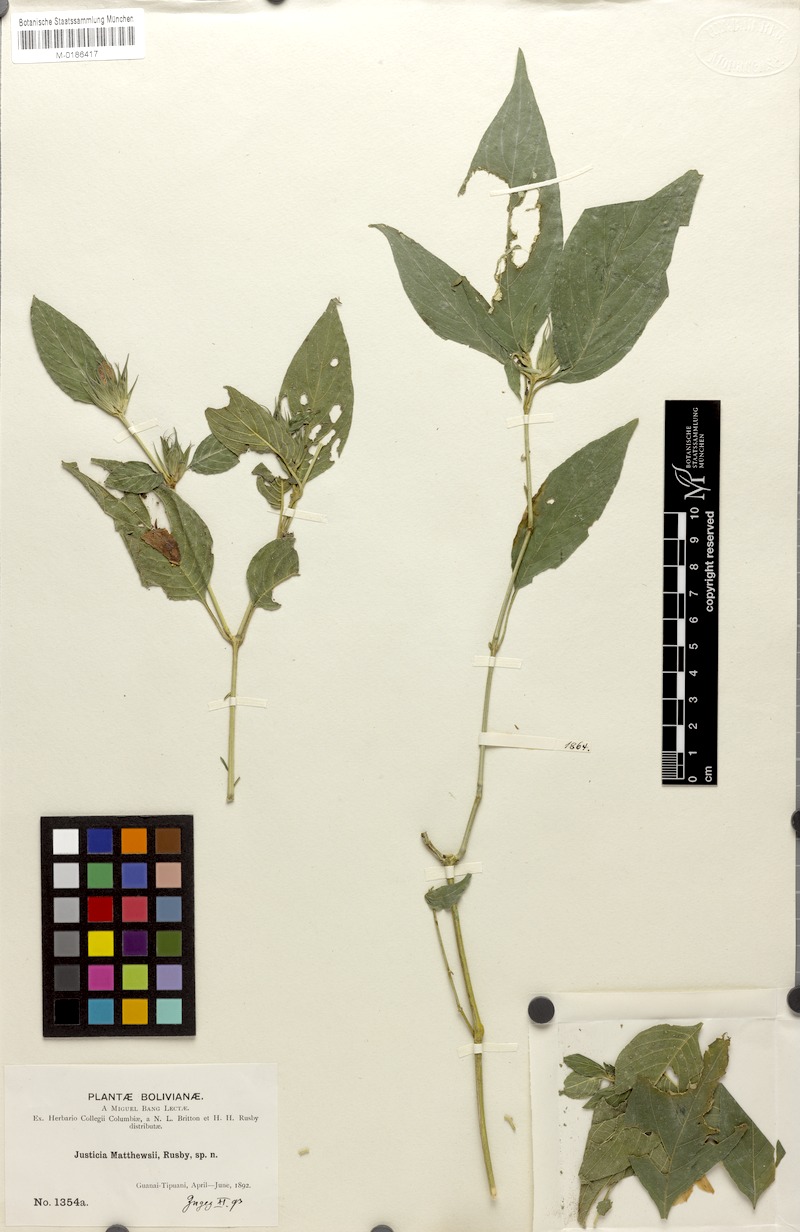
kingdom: Plantae
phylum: Tracheophyta
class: Magnoliopsida
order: Lamiales
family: Acanthaceae
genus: Justicia
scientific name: Justicia rusbyi
